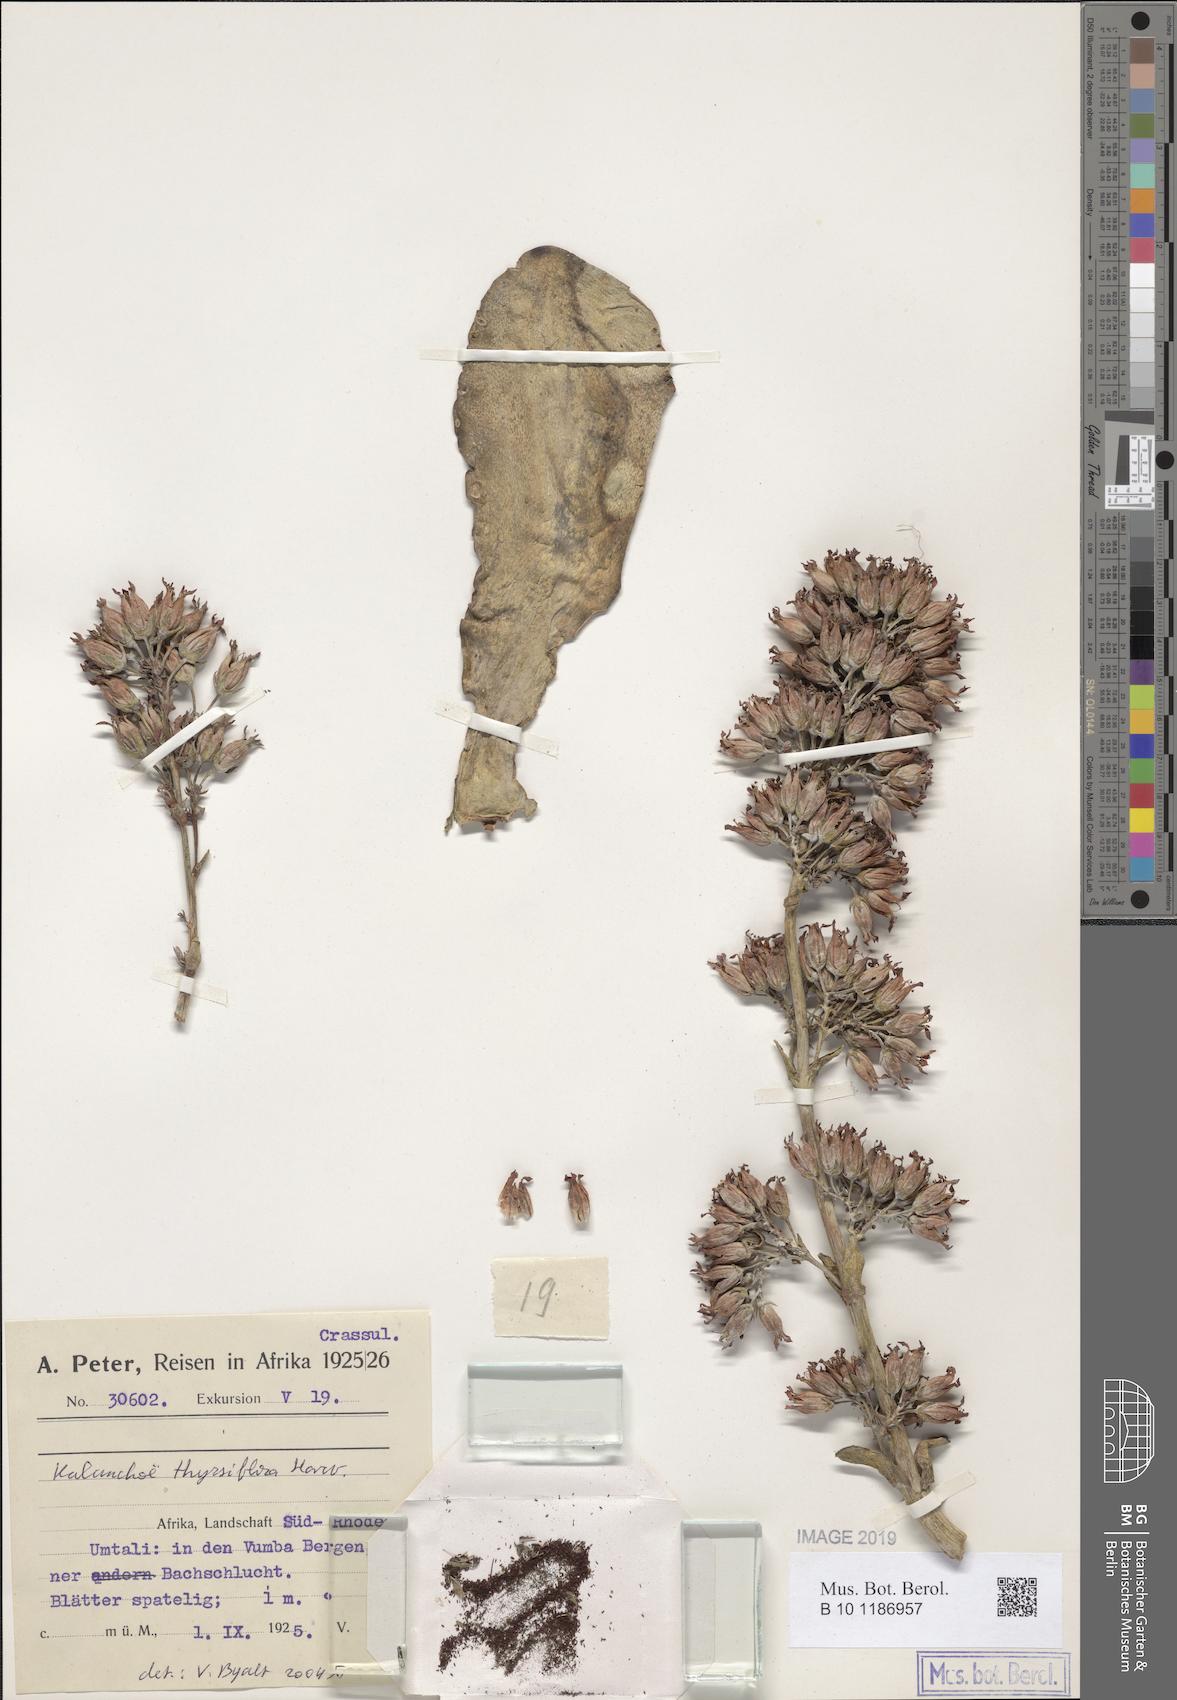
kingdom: Plantae
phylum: Tracheophyta
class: Magnoliopsida
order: Saxifragales
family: Crassulaceae
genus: Kalanchoe
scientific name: Kalanchoe thyrsiflora
